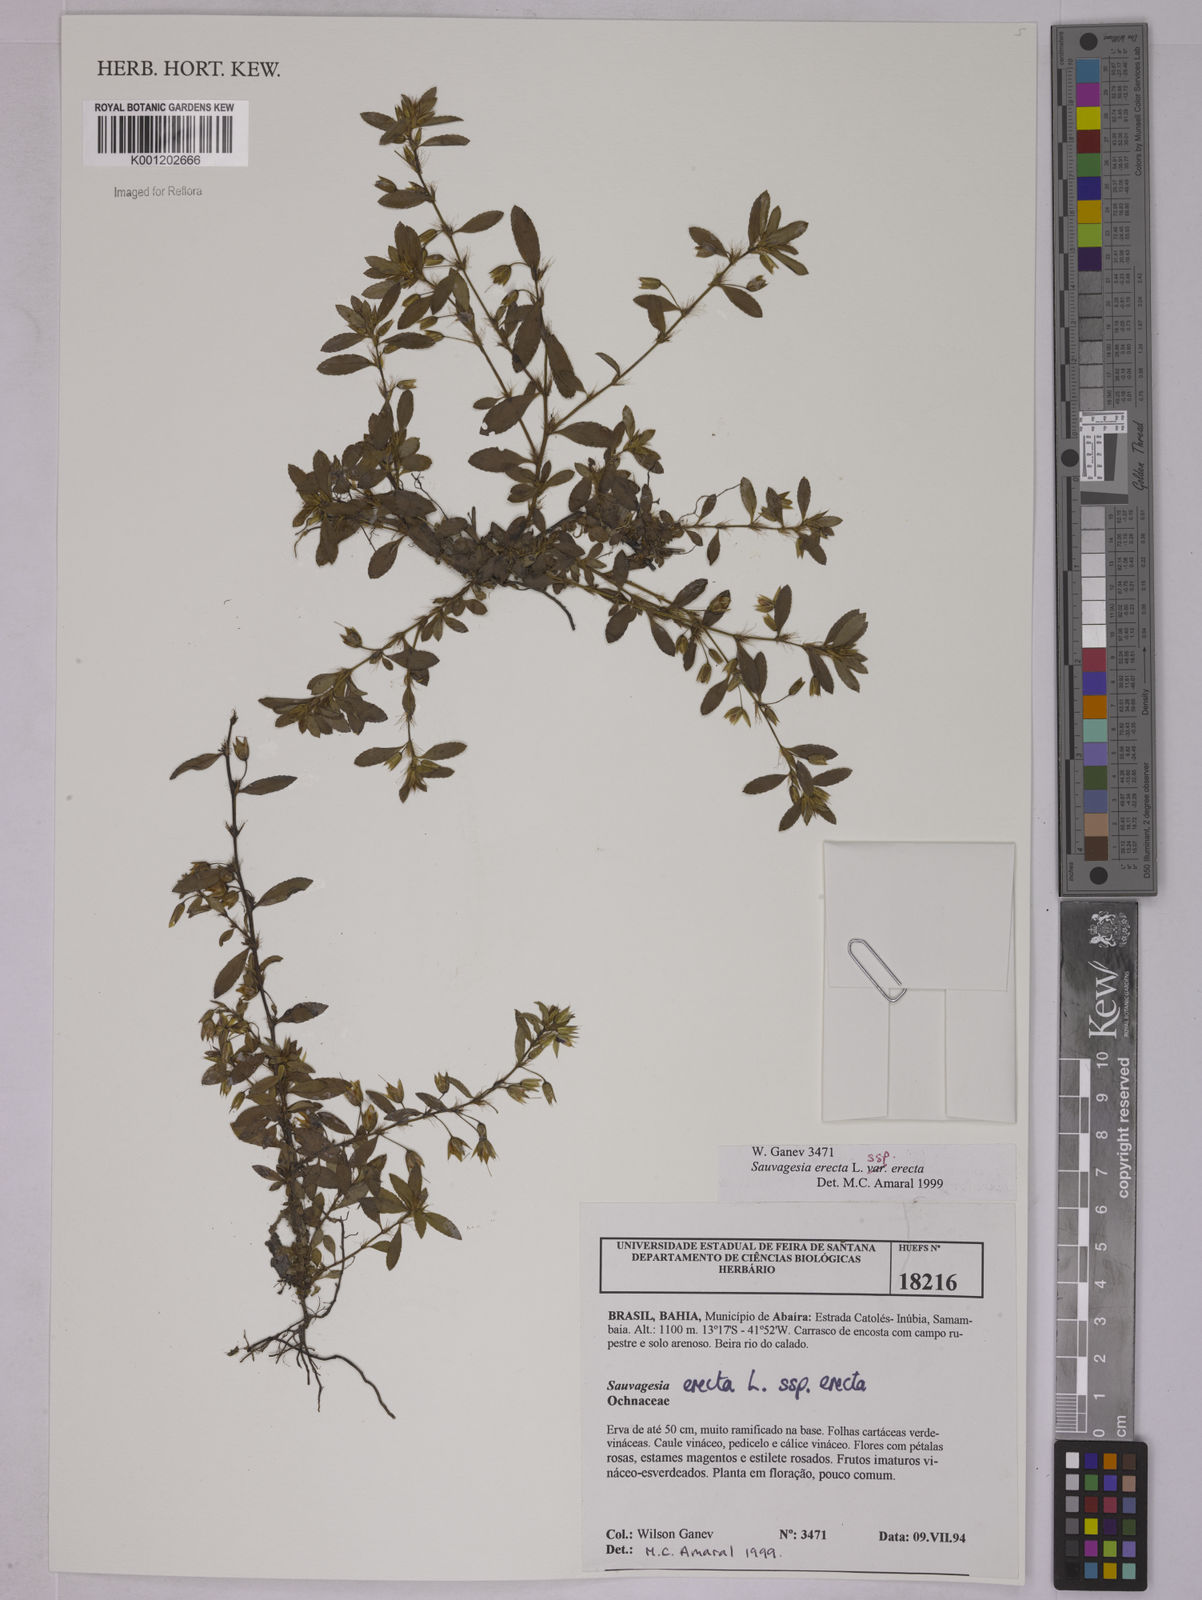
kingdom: Plantae
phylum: Tracheophyta
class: Magnoliopsida
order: Malpighiales
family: Ochnaceae
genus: Sauvagesia
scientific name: Sauvagesia erecta
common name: Creole tea
